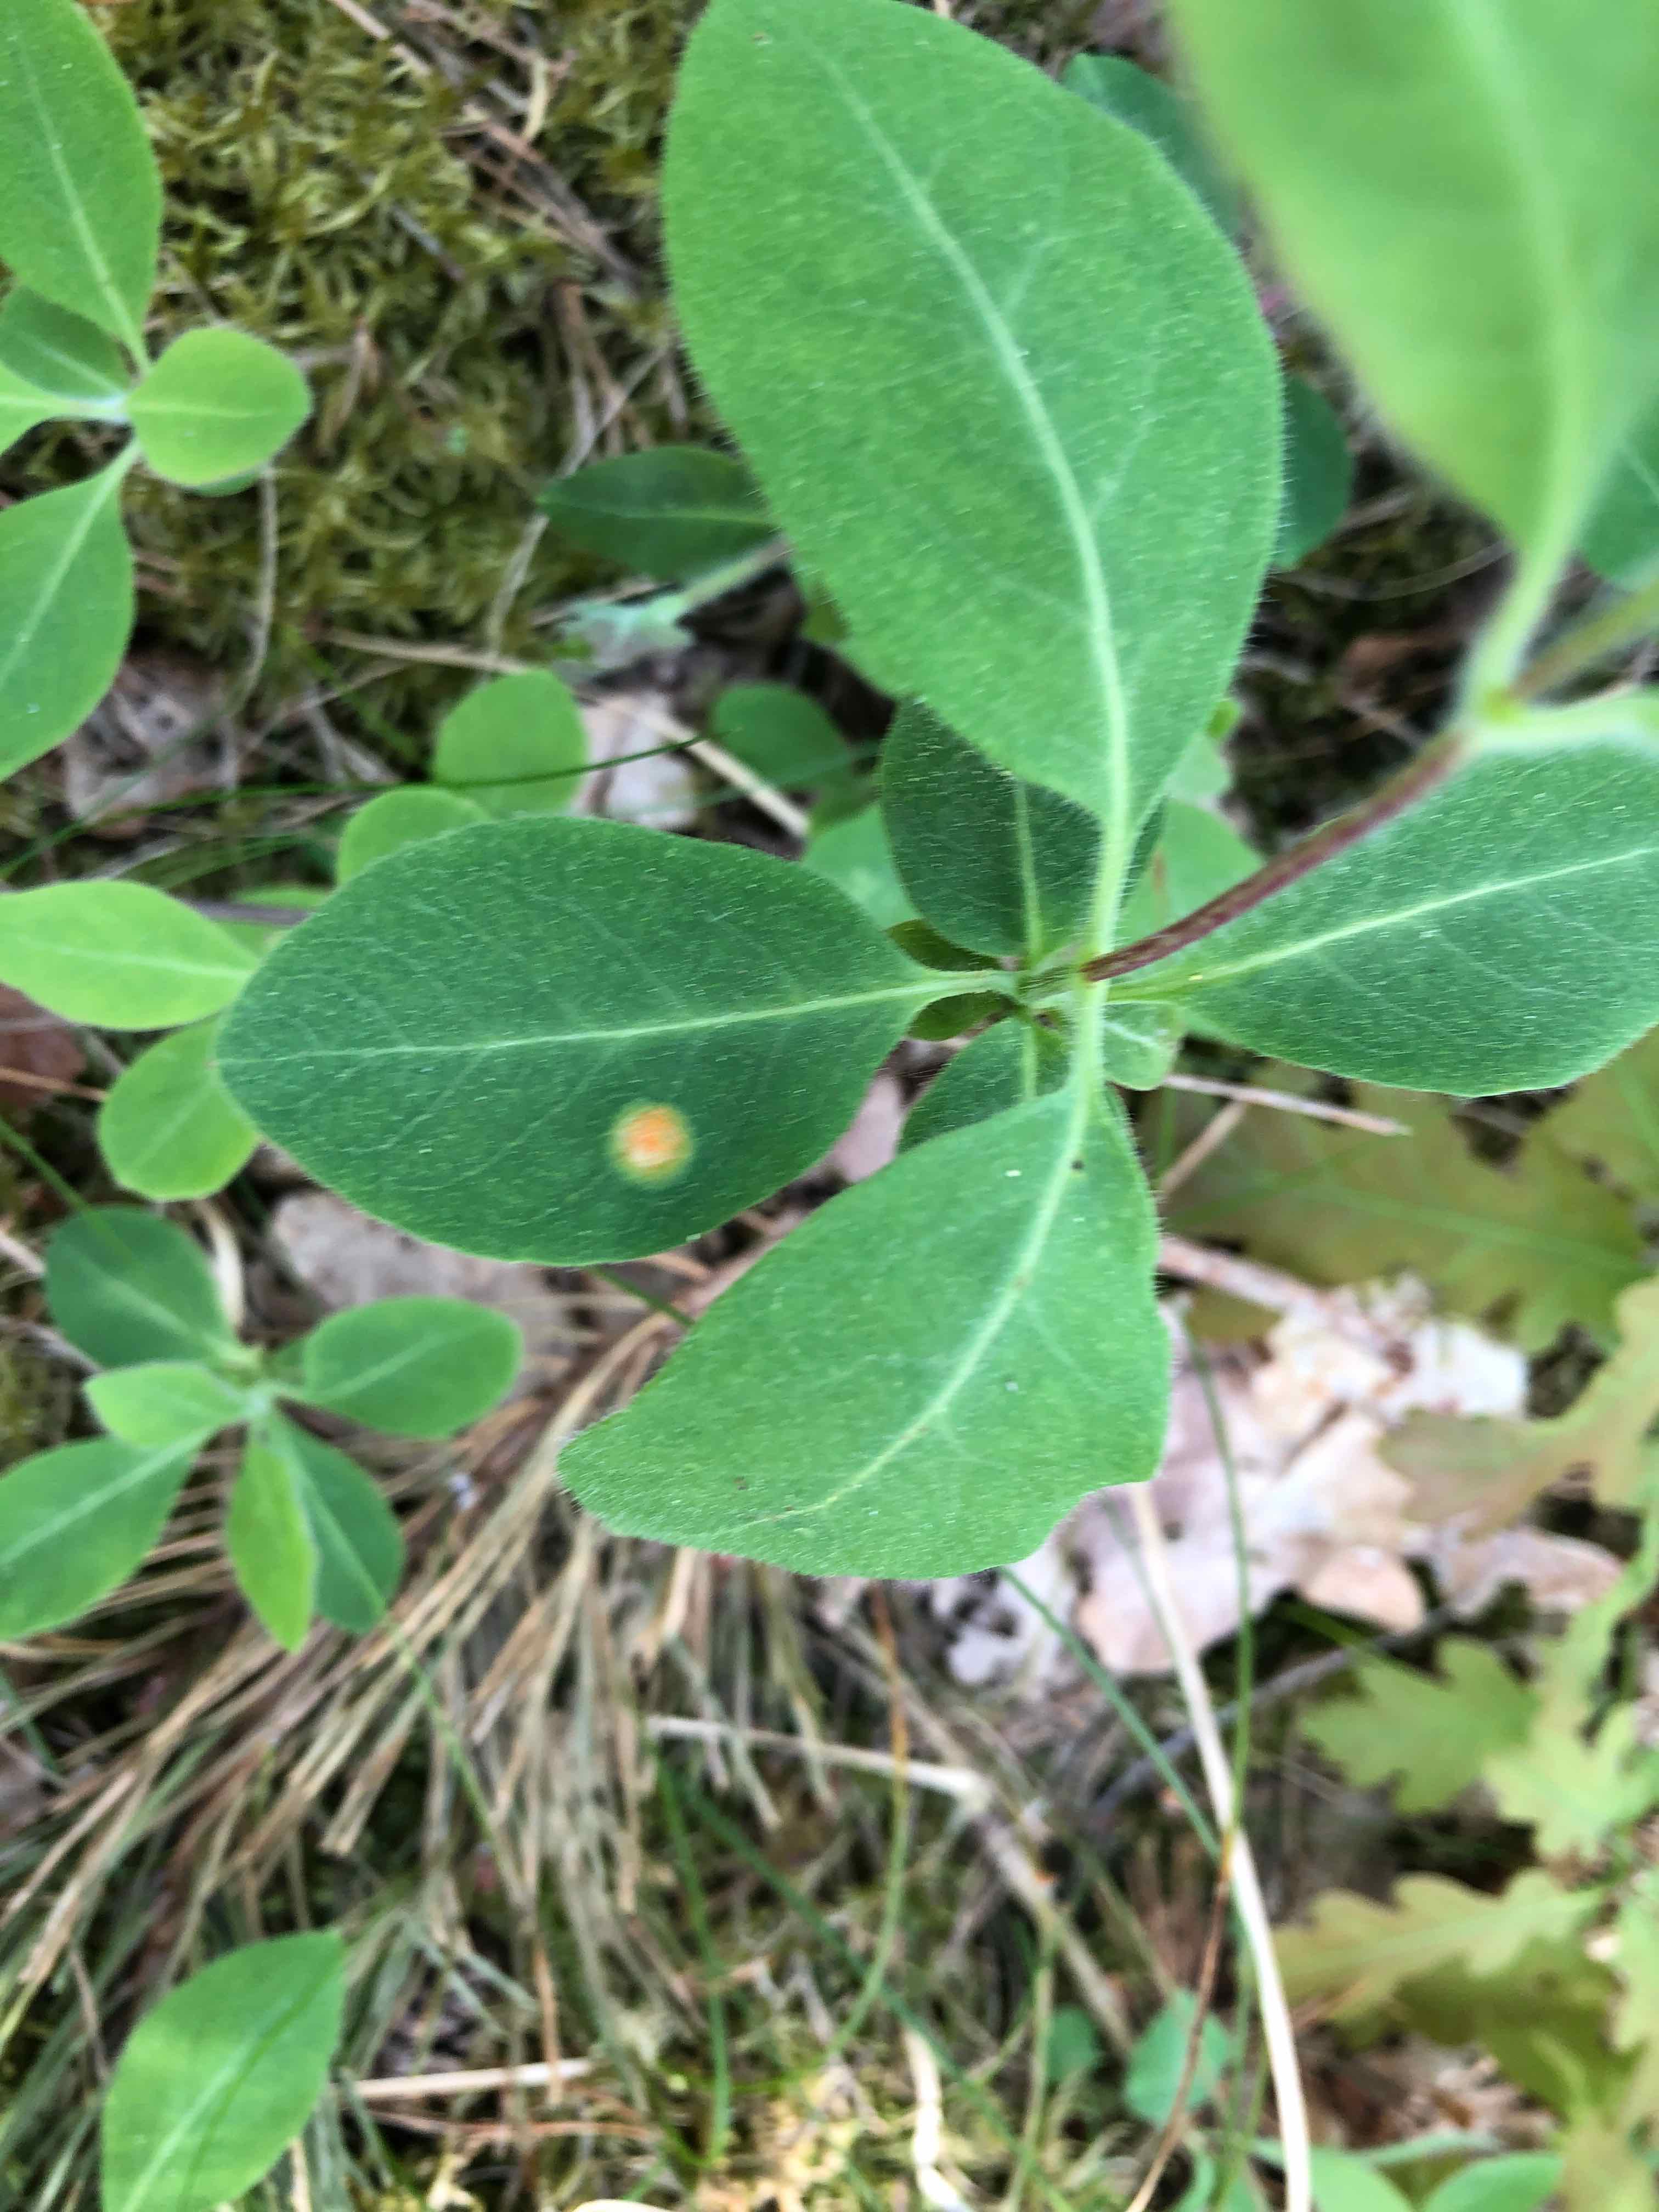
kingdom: Fungi
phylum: Basidiomycota
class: Pucciniomycetes
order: Pucciniales
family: Pucciniaceae
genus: Puccinia
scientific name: Puccinia festucae
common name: gedeblad-tvecellerust
